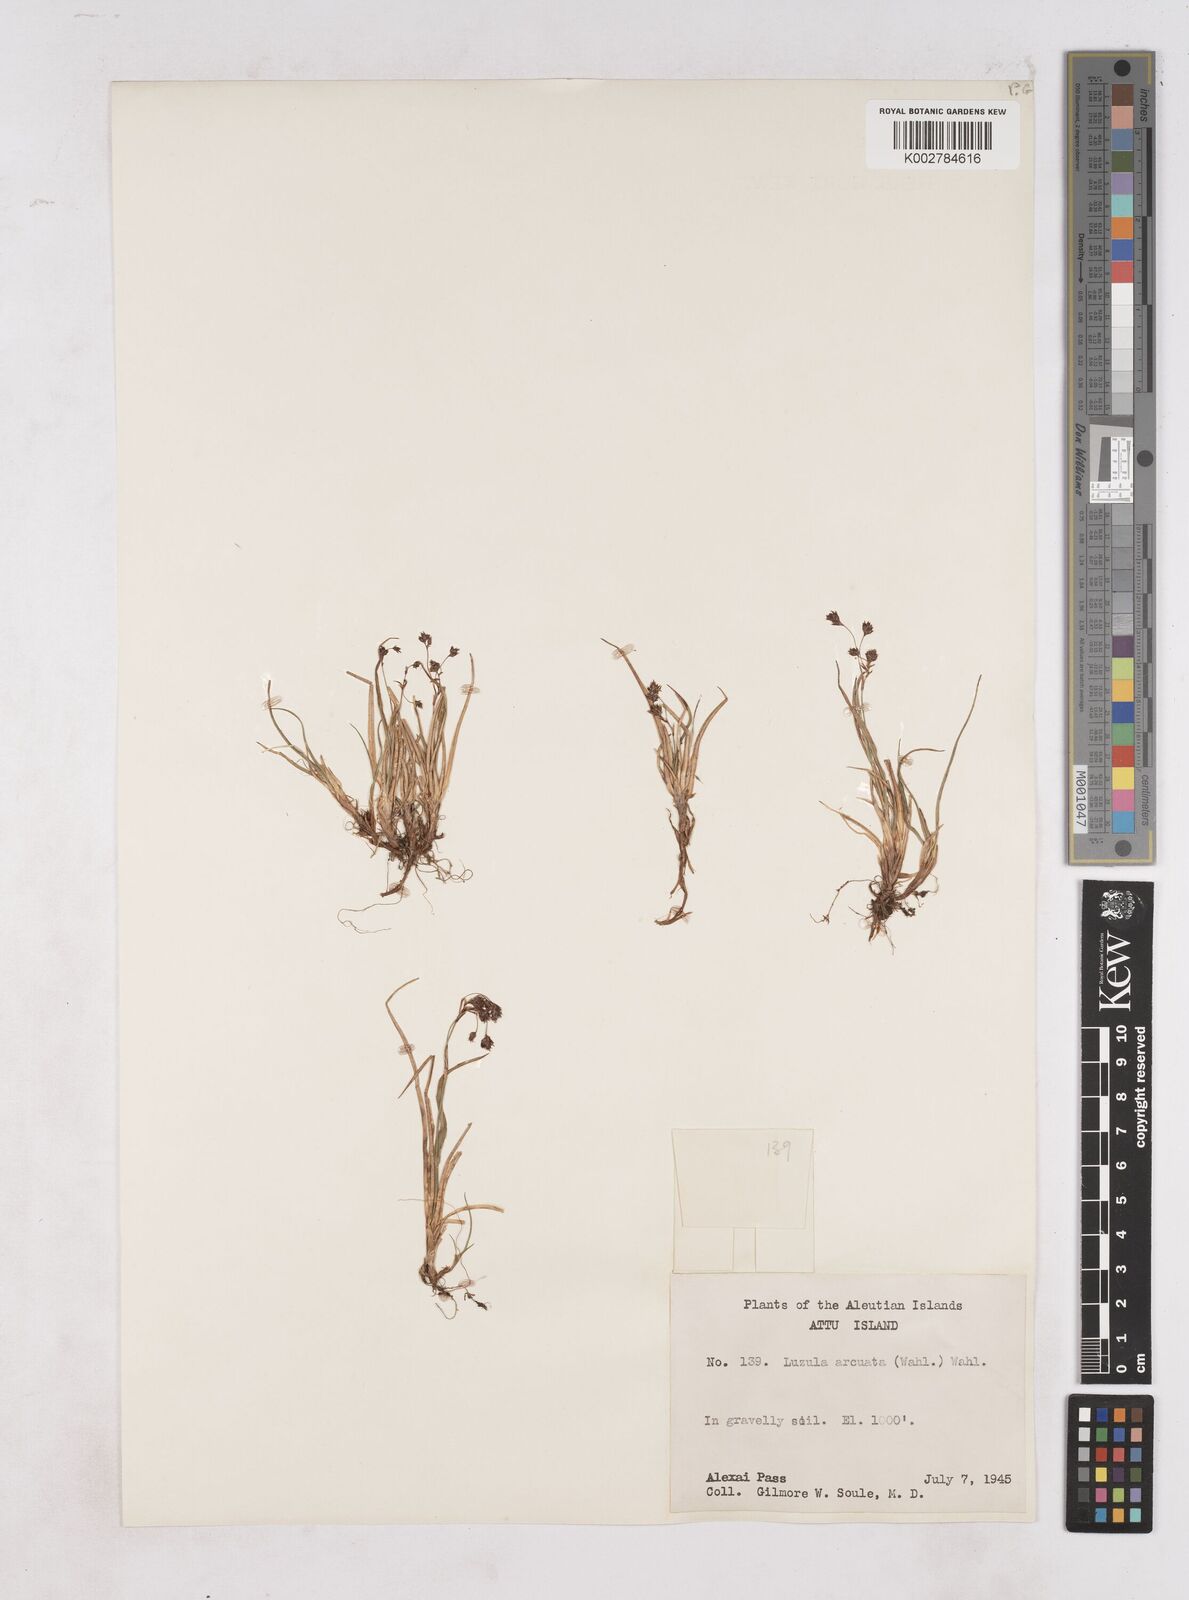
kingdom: Plantae
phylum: Tracheophyta
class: Liliopsida
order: Poales
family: Juncaceae
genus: Luzula
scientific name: Luzula arcuata
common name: Curved wood-rush
